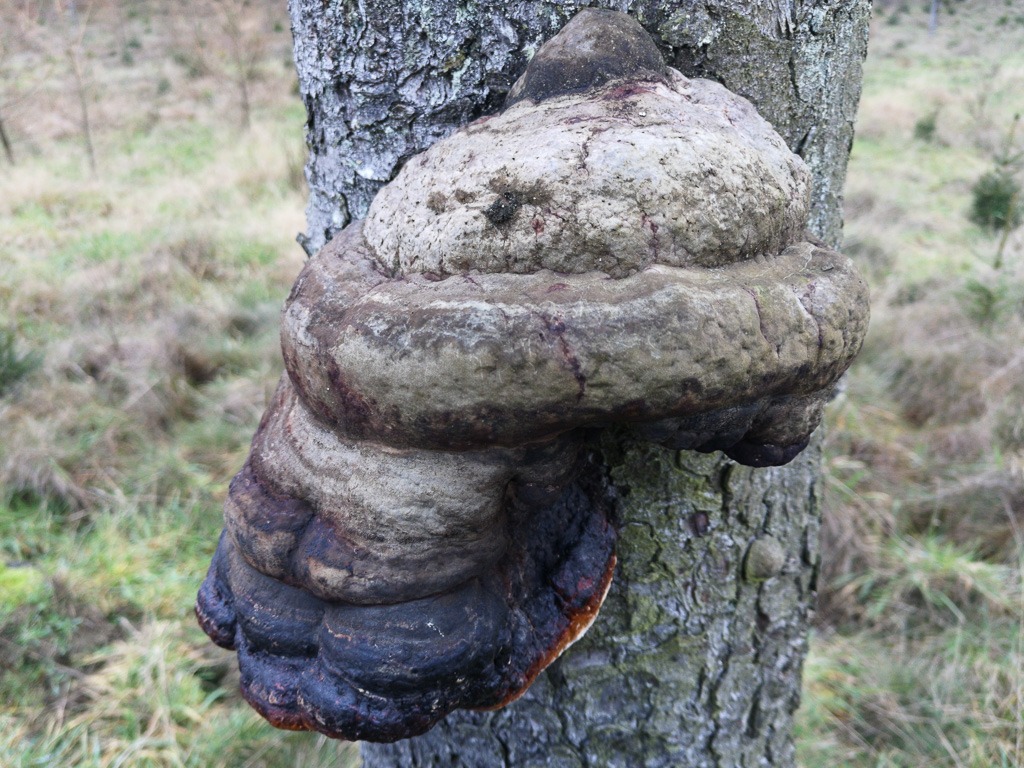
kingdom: Fungi
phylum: Basidiomycota
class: Agaricomycetes
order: Polyporales
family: Fomitopsidaceae
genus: Fomitopsis
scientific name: Fomitopsis pinicola
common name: randbæltet hovporesvamp
